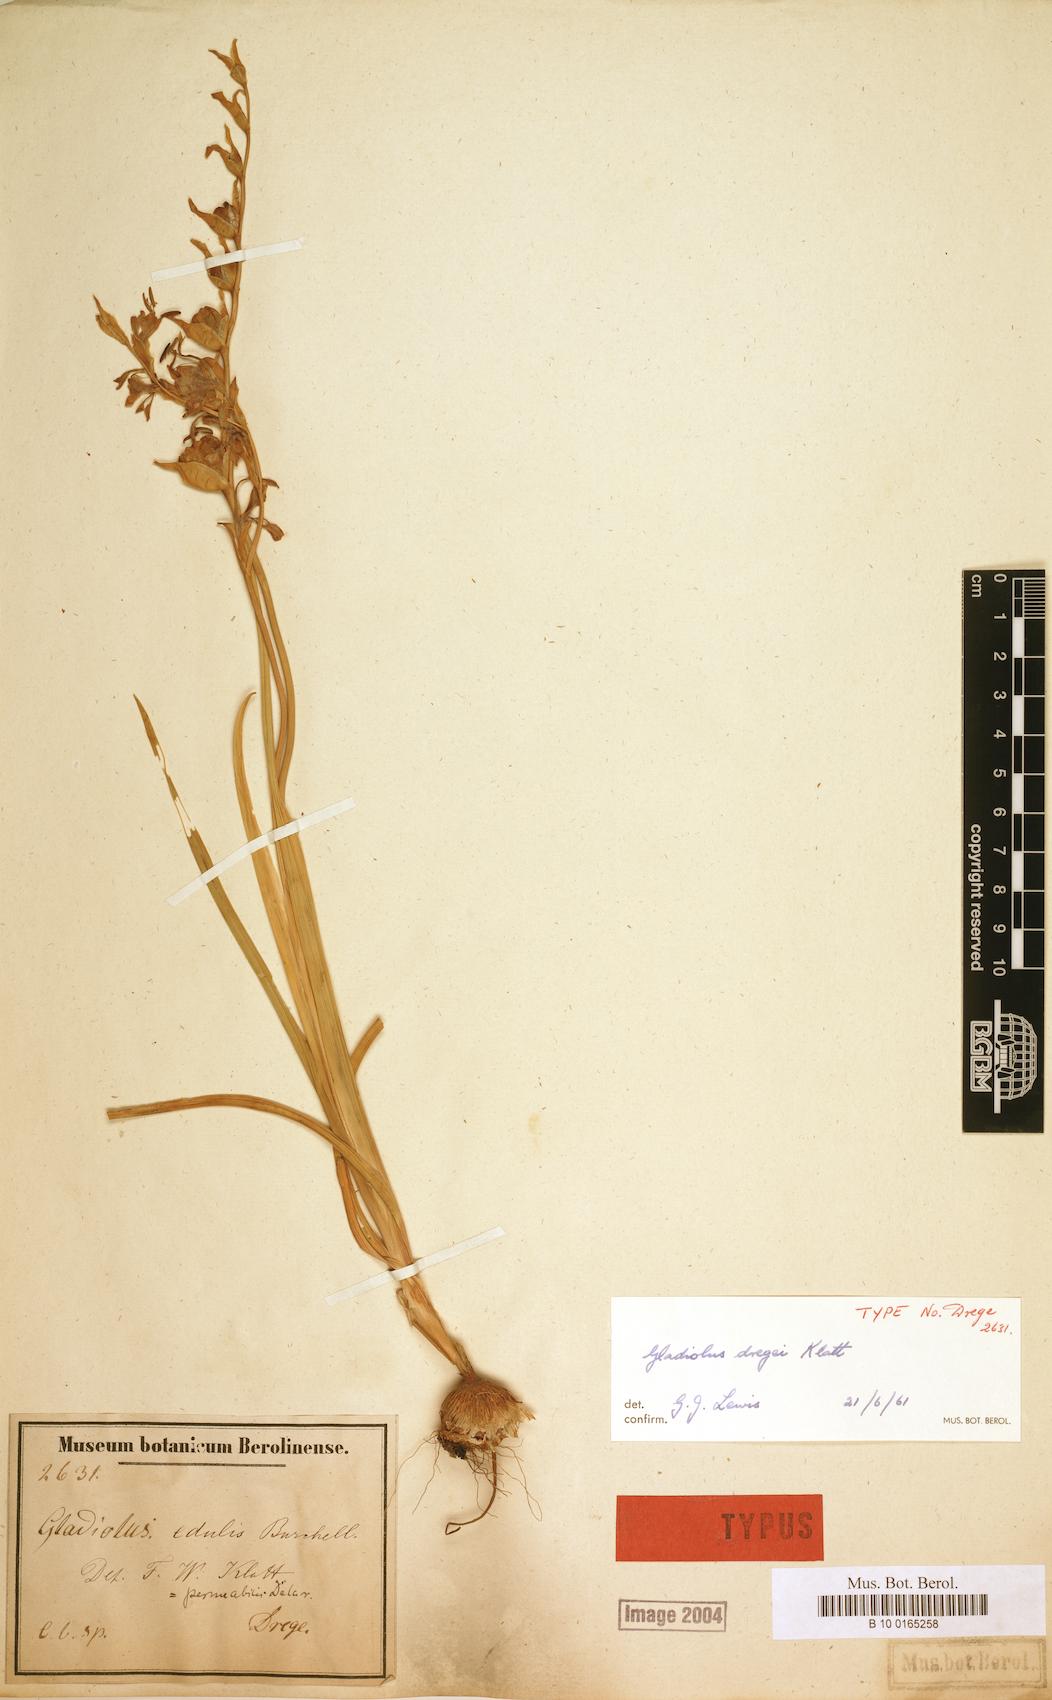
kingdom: Plantae
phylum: Tracheophyta
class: Liliopsida
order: Asparagales
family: Iridaceae
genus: Gladiolus
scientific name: Gladiolus orchidiflorus
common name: Gray kalkoentjie
